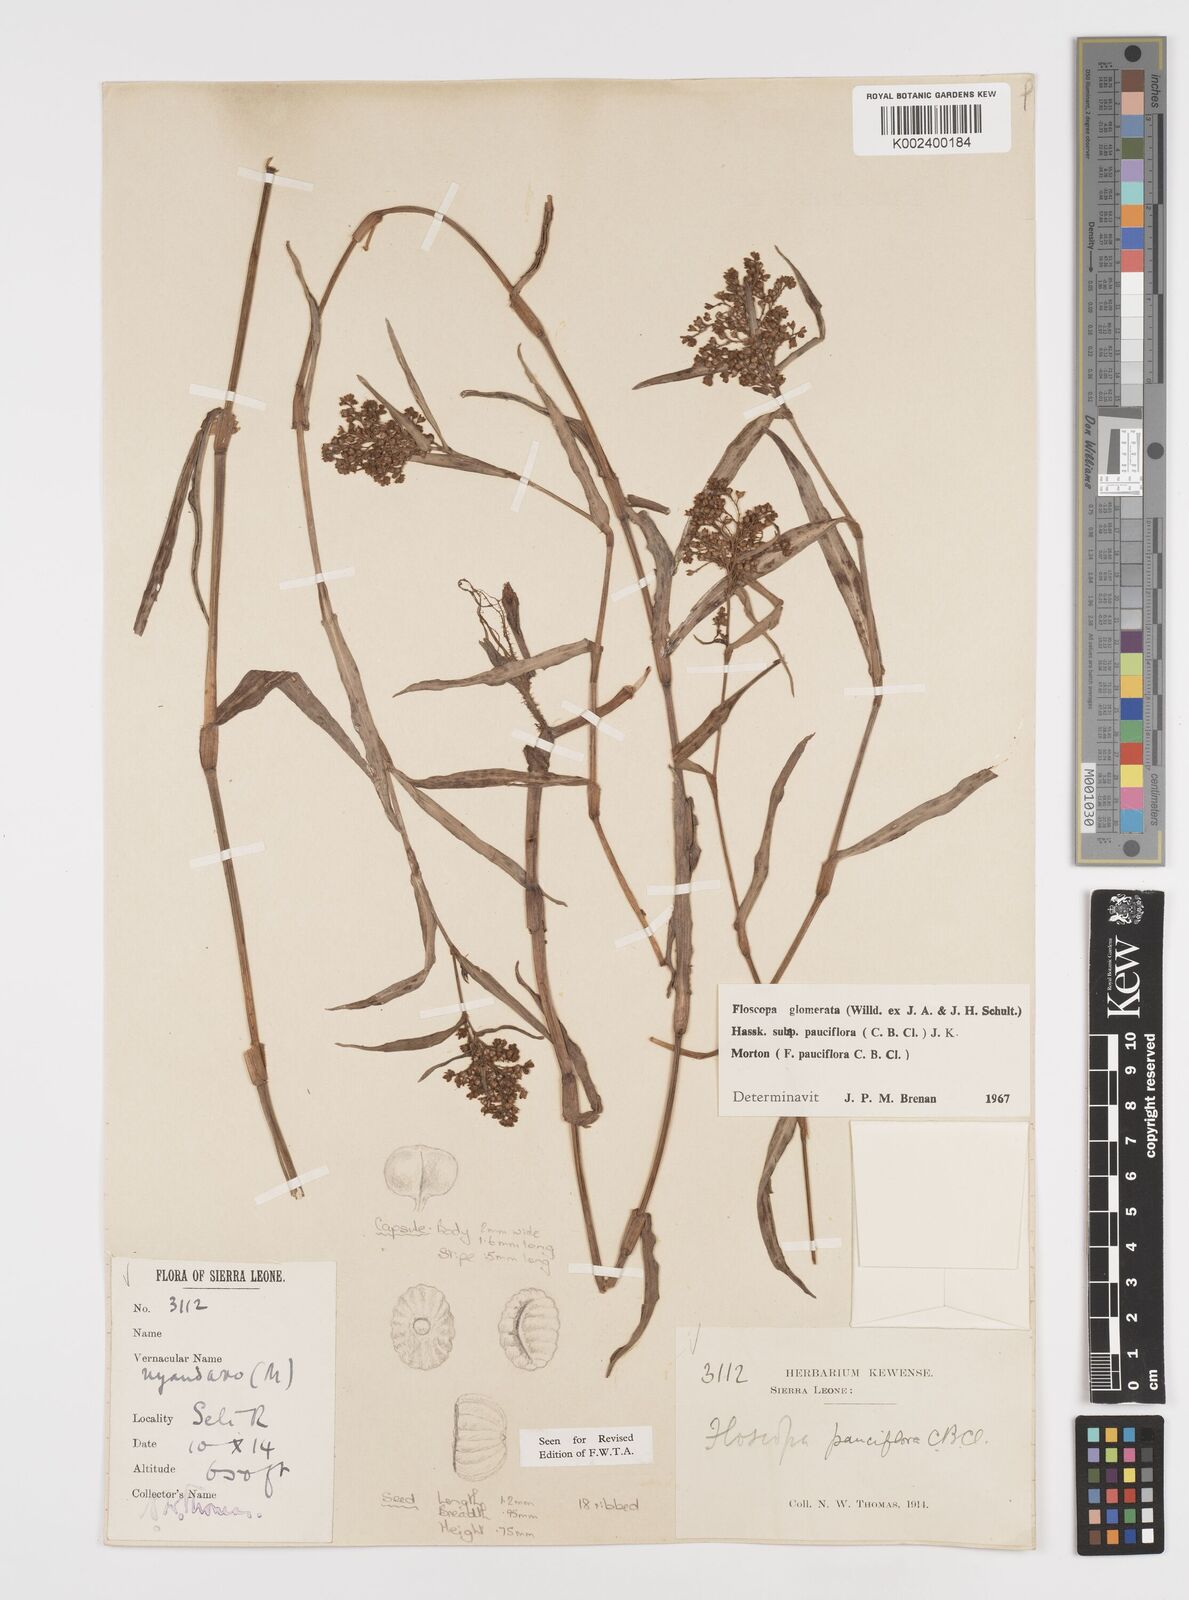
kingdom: Plantae
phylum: Tracheophyta
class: Liliopsida
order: Commelinales
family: Commelinaceae
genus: Floscopa
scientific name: Floscopa glomerata
